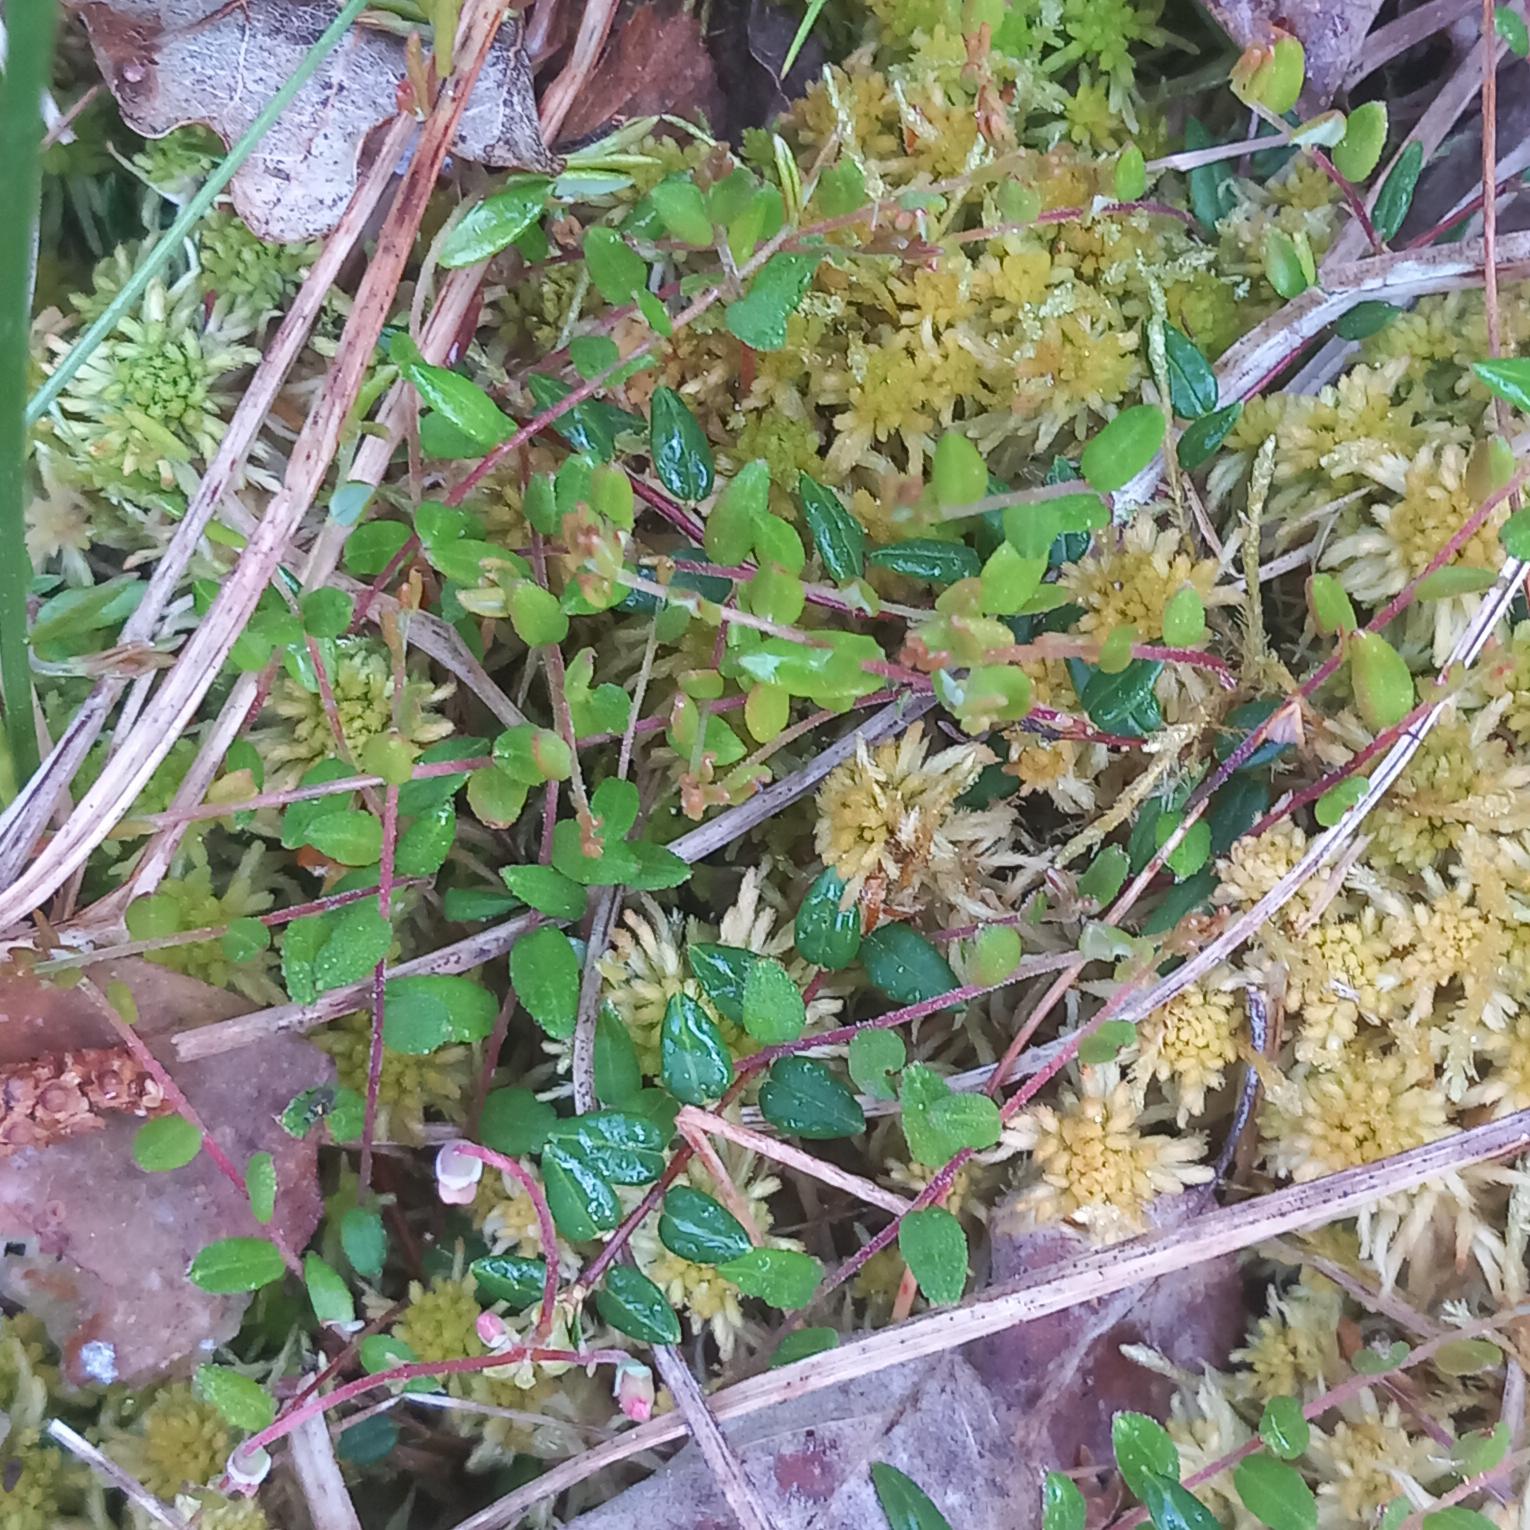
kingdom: Plantae
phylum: Tracheophyta
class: Magnoliopsida
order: Ericales
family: Ericaceae
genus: Vaccinium
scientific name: Vaccinium oxycoccos
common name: Tranebær
